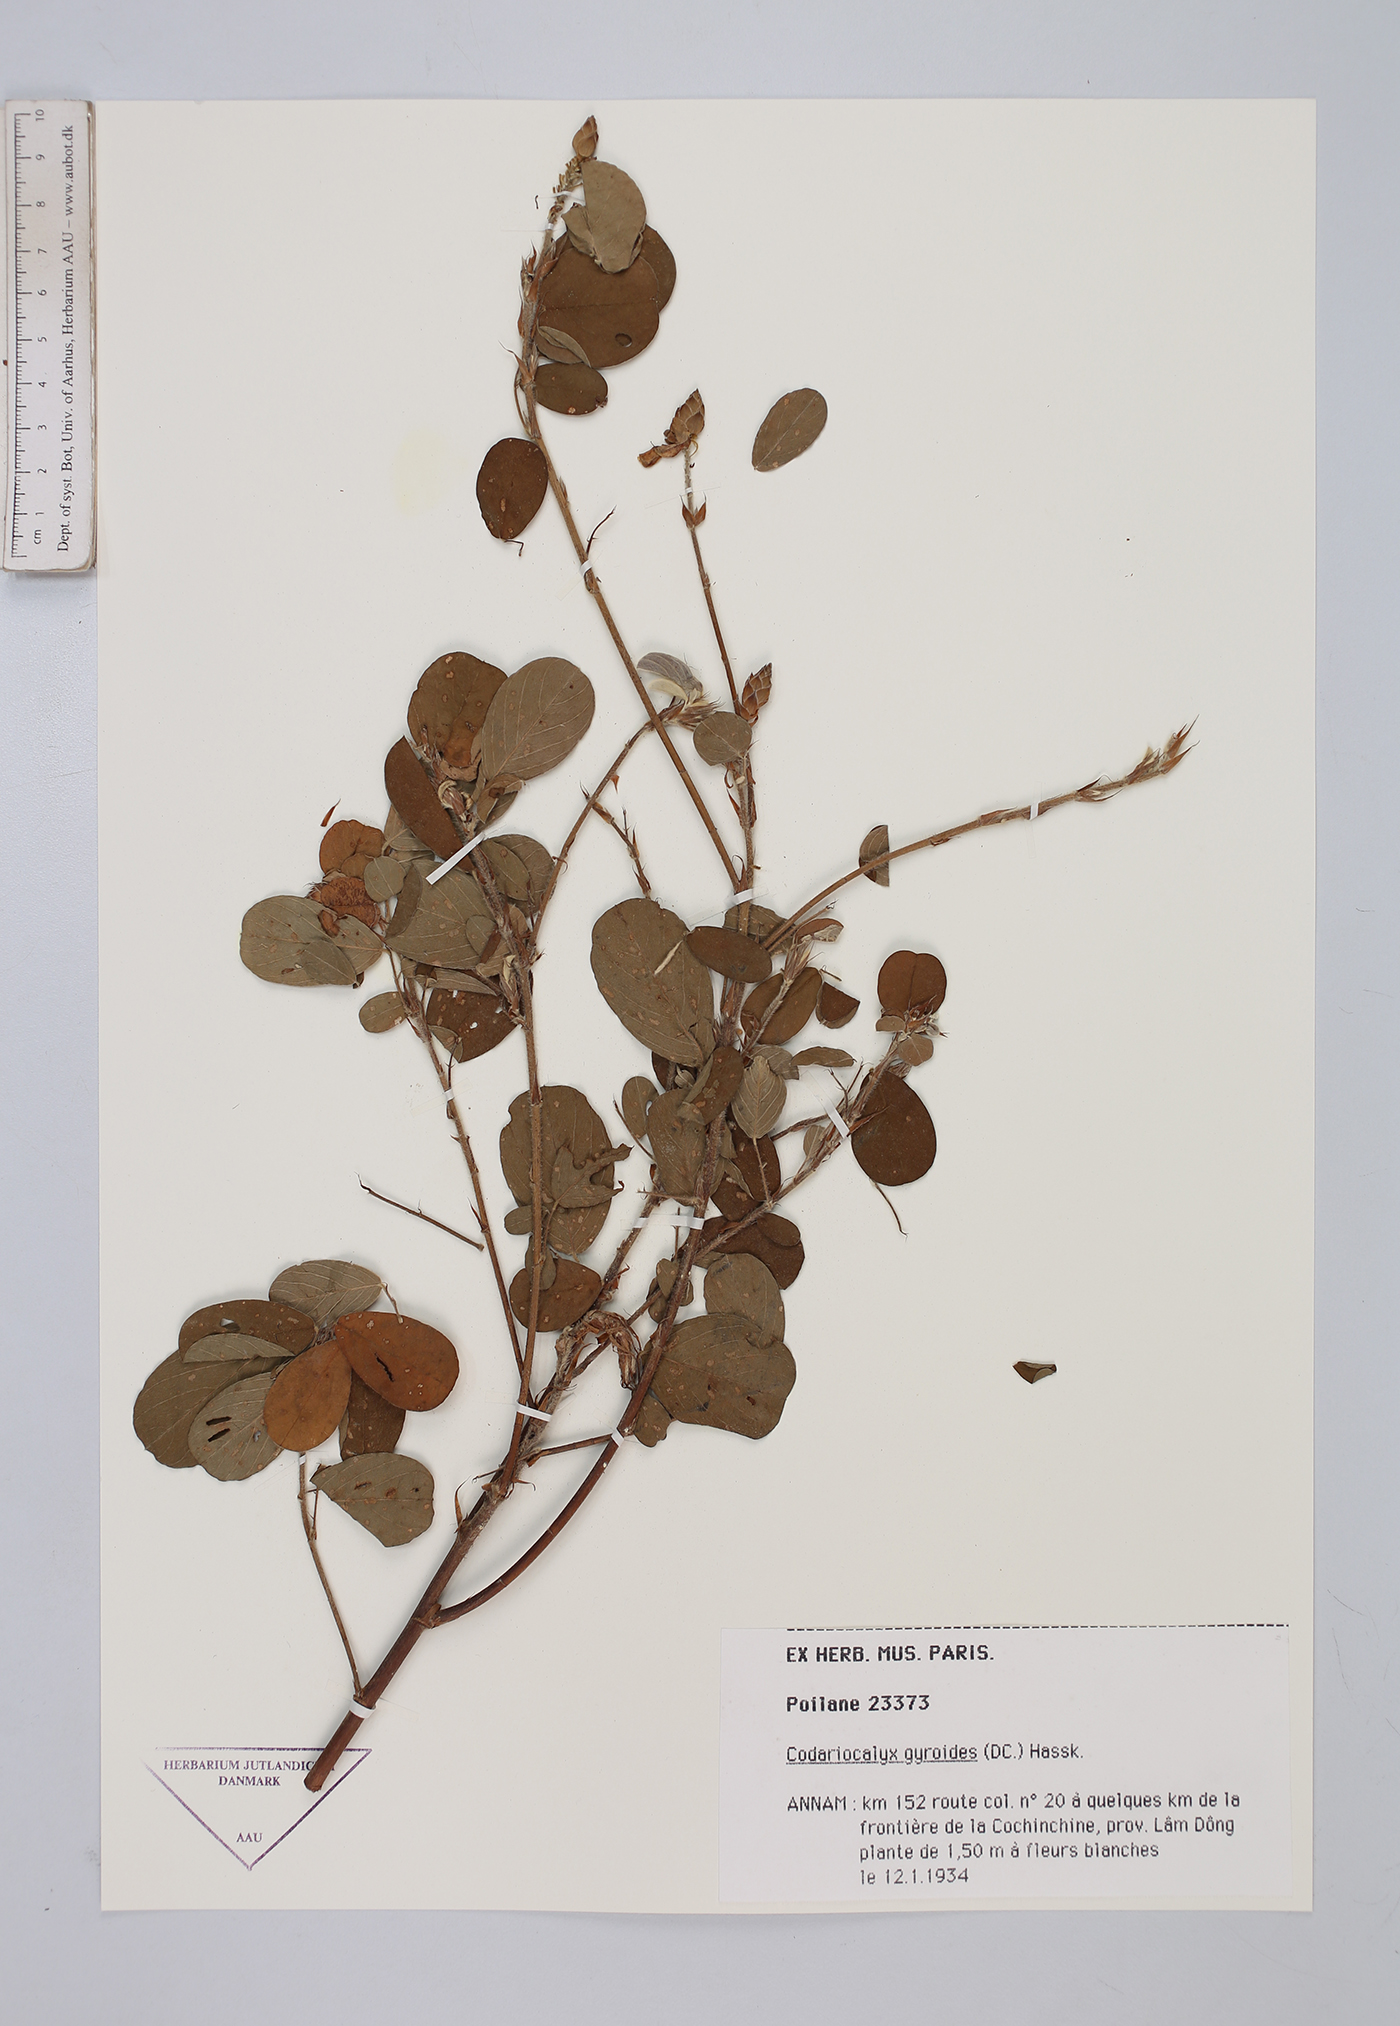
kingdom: Plantae
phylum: Tracheophyta
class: Magnoliopsida
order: Fabales
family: Fabaceae
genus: Codariocalyx
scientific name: Codariocalyx gyroides
